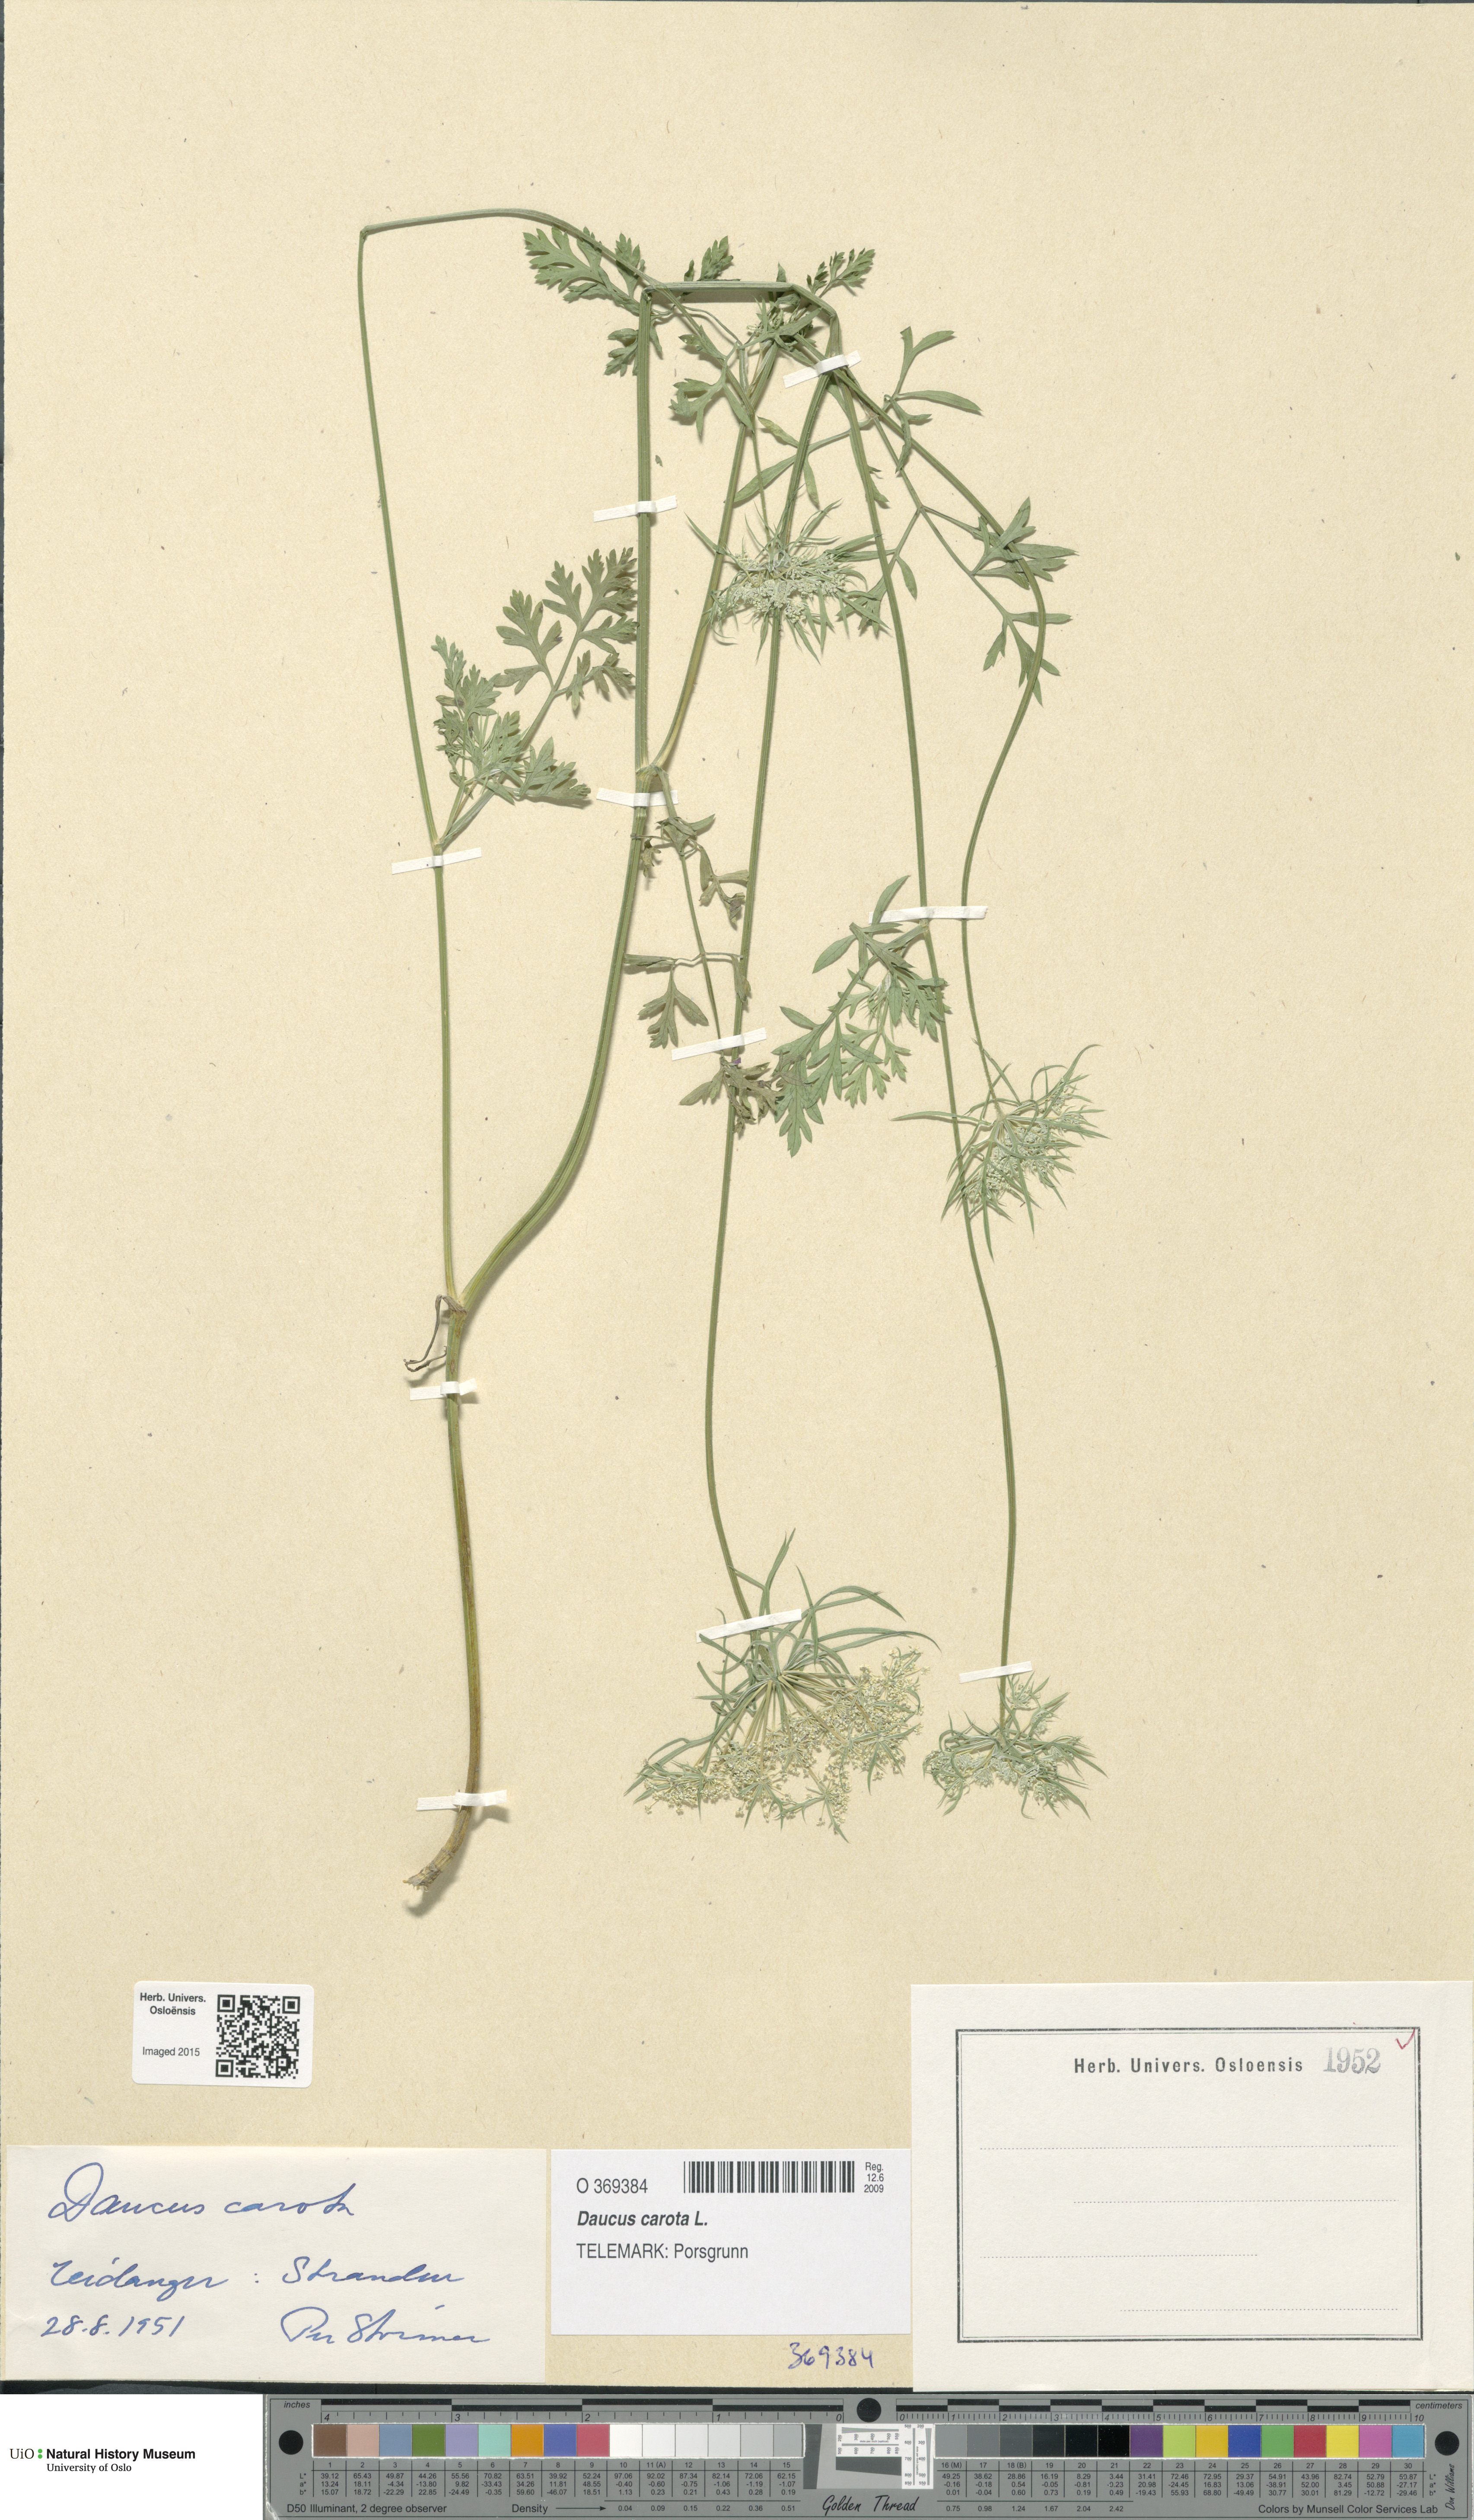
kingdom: Plantae
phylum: Tracheophyta
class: Magnoliopsida
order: Apiales
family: Apiaceae
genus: Daucus
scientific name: Daucus carota
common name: Wild carrot
